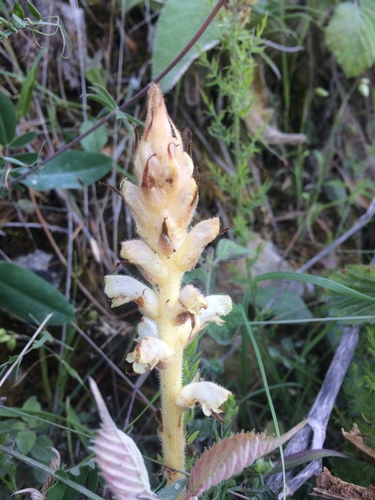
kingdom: Plantae
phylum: Tracheophyta
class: Magnoliopsida
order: Lamiales
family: Orobanchaceae
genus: Orobanche
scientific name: Orobanche clausonis
